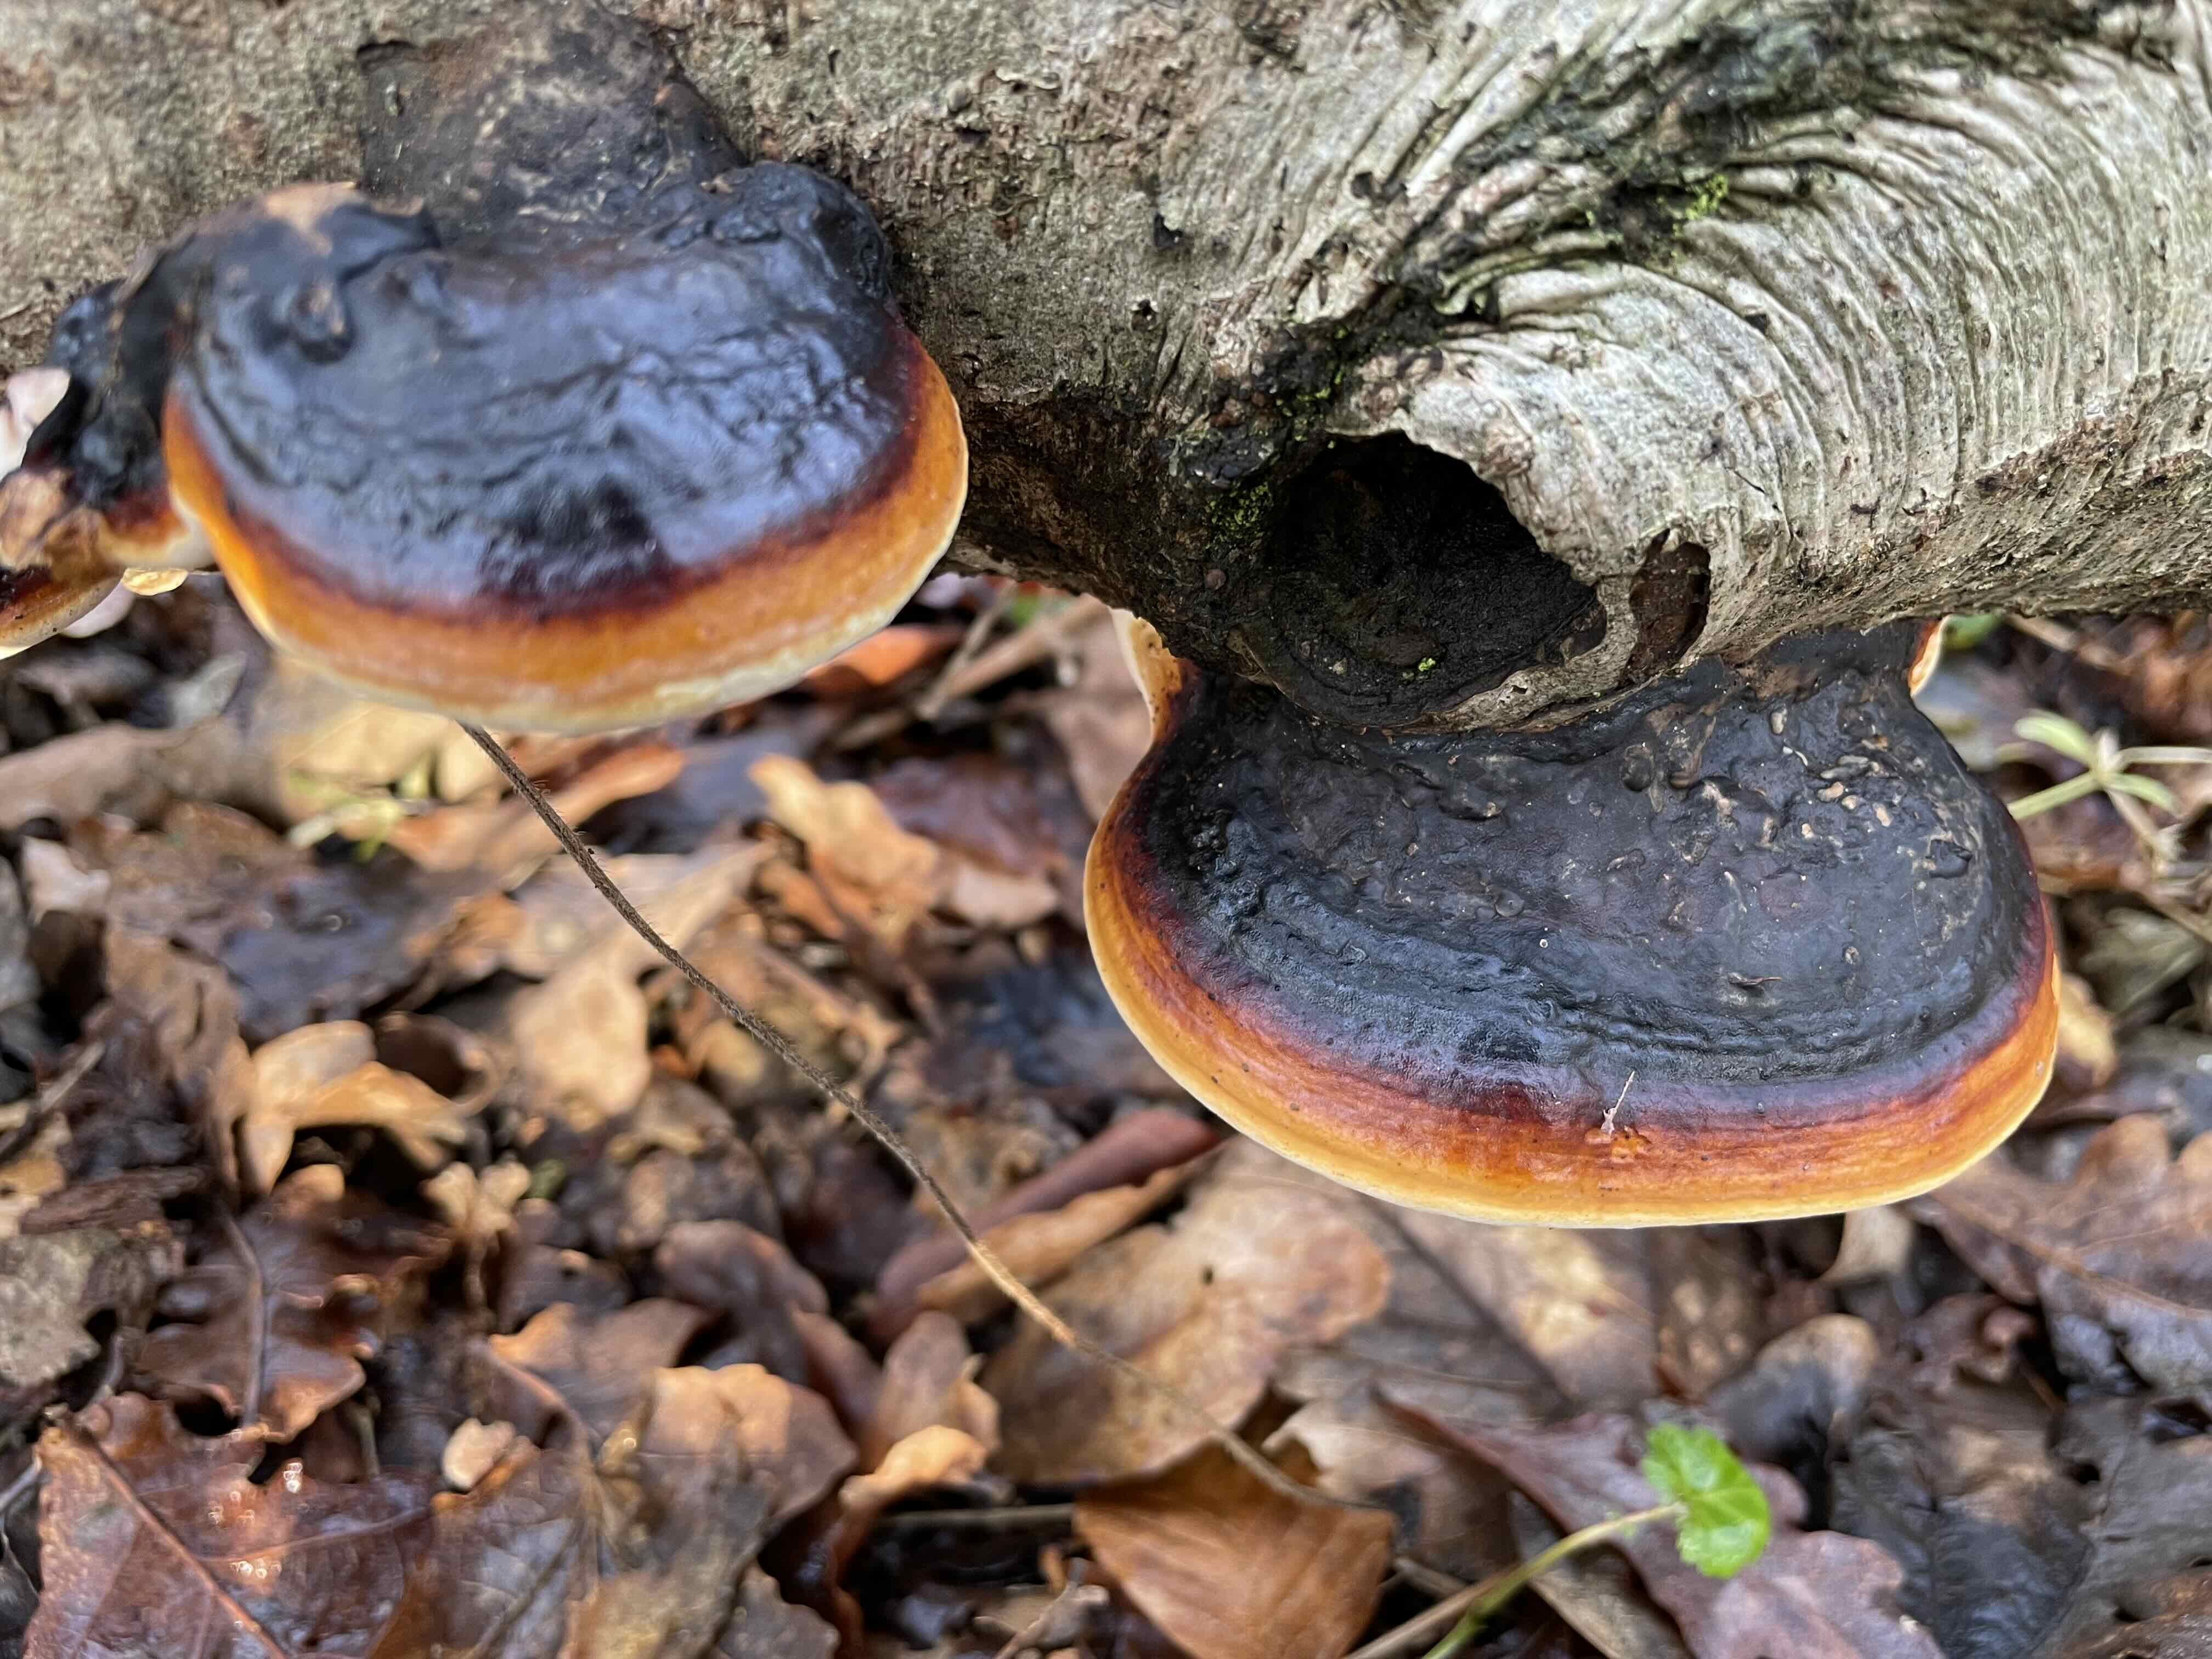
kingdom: Fungi
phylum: Basidiomycota
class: Agaricomycetes
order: Polyporales
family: Fomitopsidaceae
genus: Fomitopsis
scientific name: Fomitopsis pinicola
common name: randbæltet hovporesvamp
